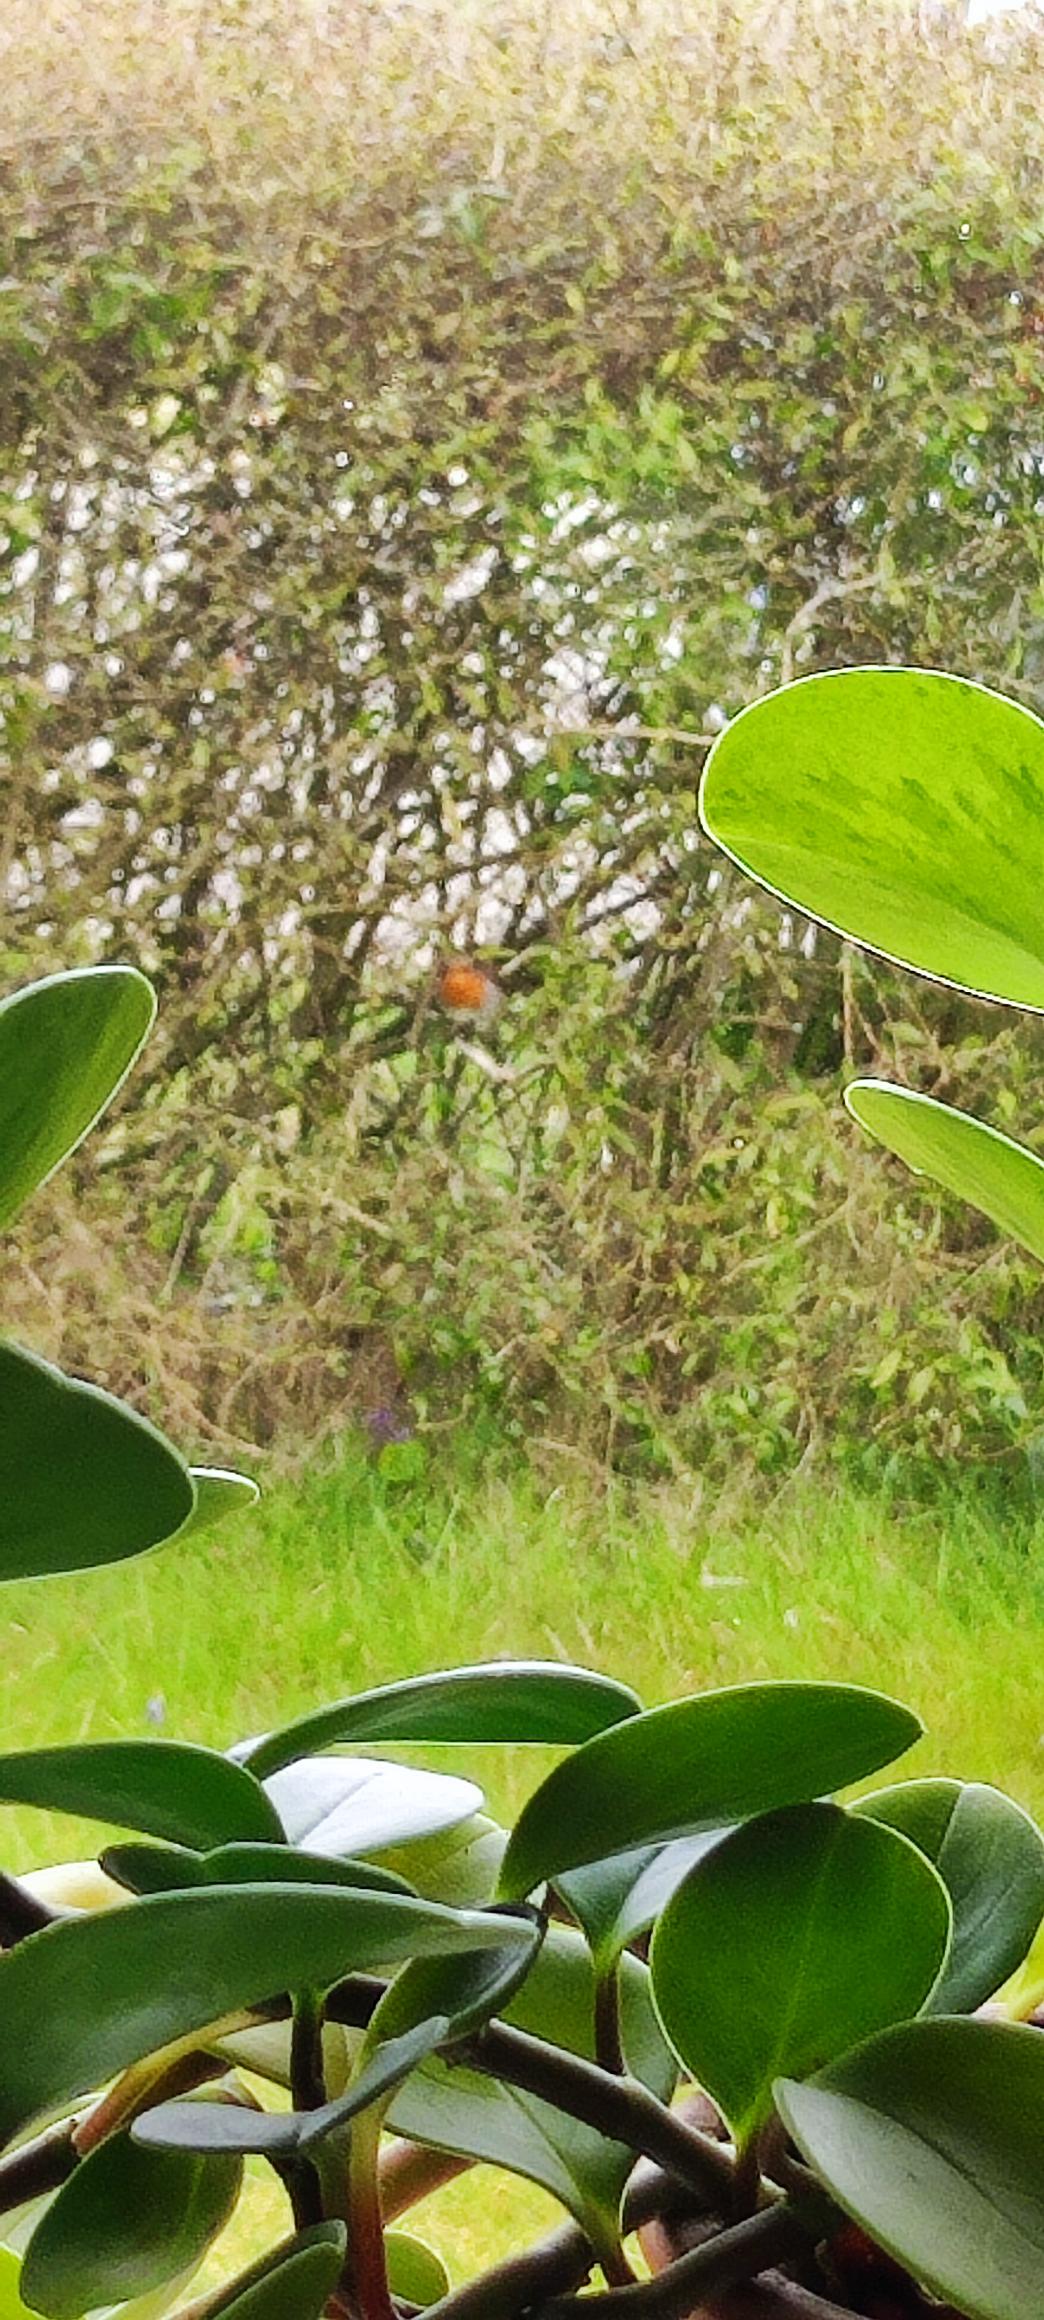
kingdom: Animalia
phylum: Chordata
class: Aves
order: Passeriformes
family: Muscicapidae
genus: Erithacus
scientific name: Erithacus rubecula
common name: Rødhals/rødkælk
